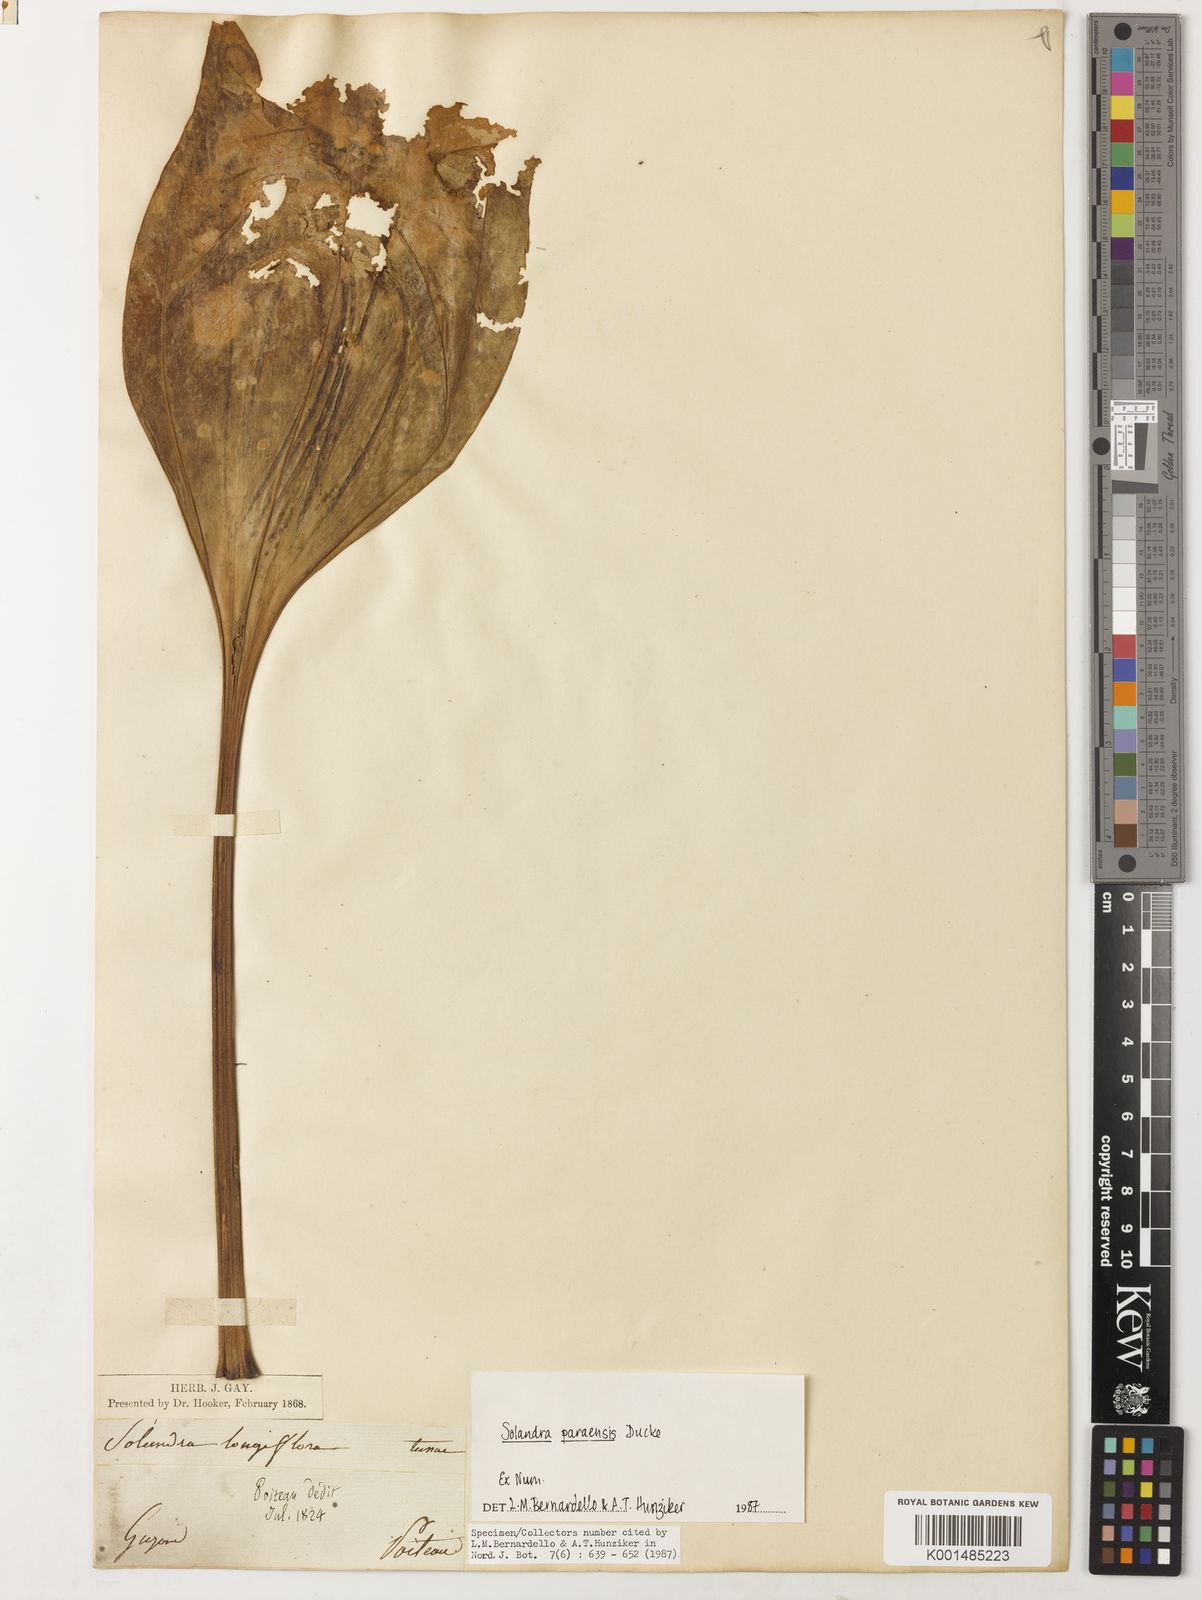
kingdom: Plantae
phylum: Tracheophyta
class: Magnoliopsida
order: Solanales
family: Solanaceae
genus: Solandra
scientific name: Solandra paraensis
